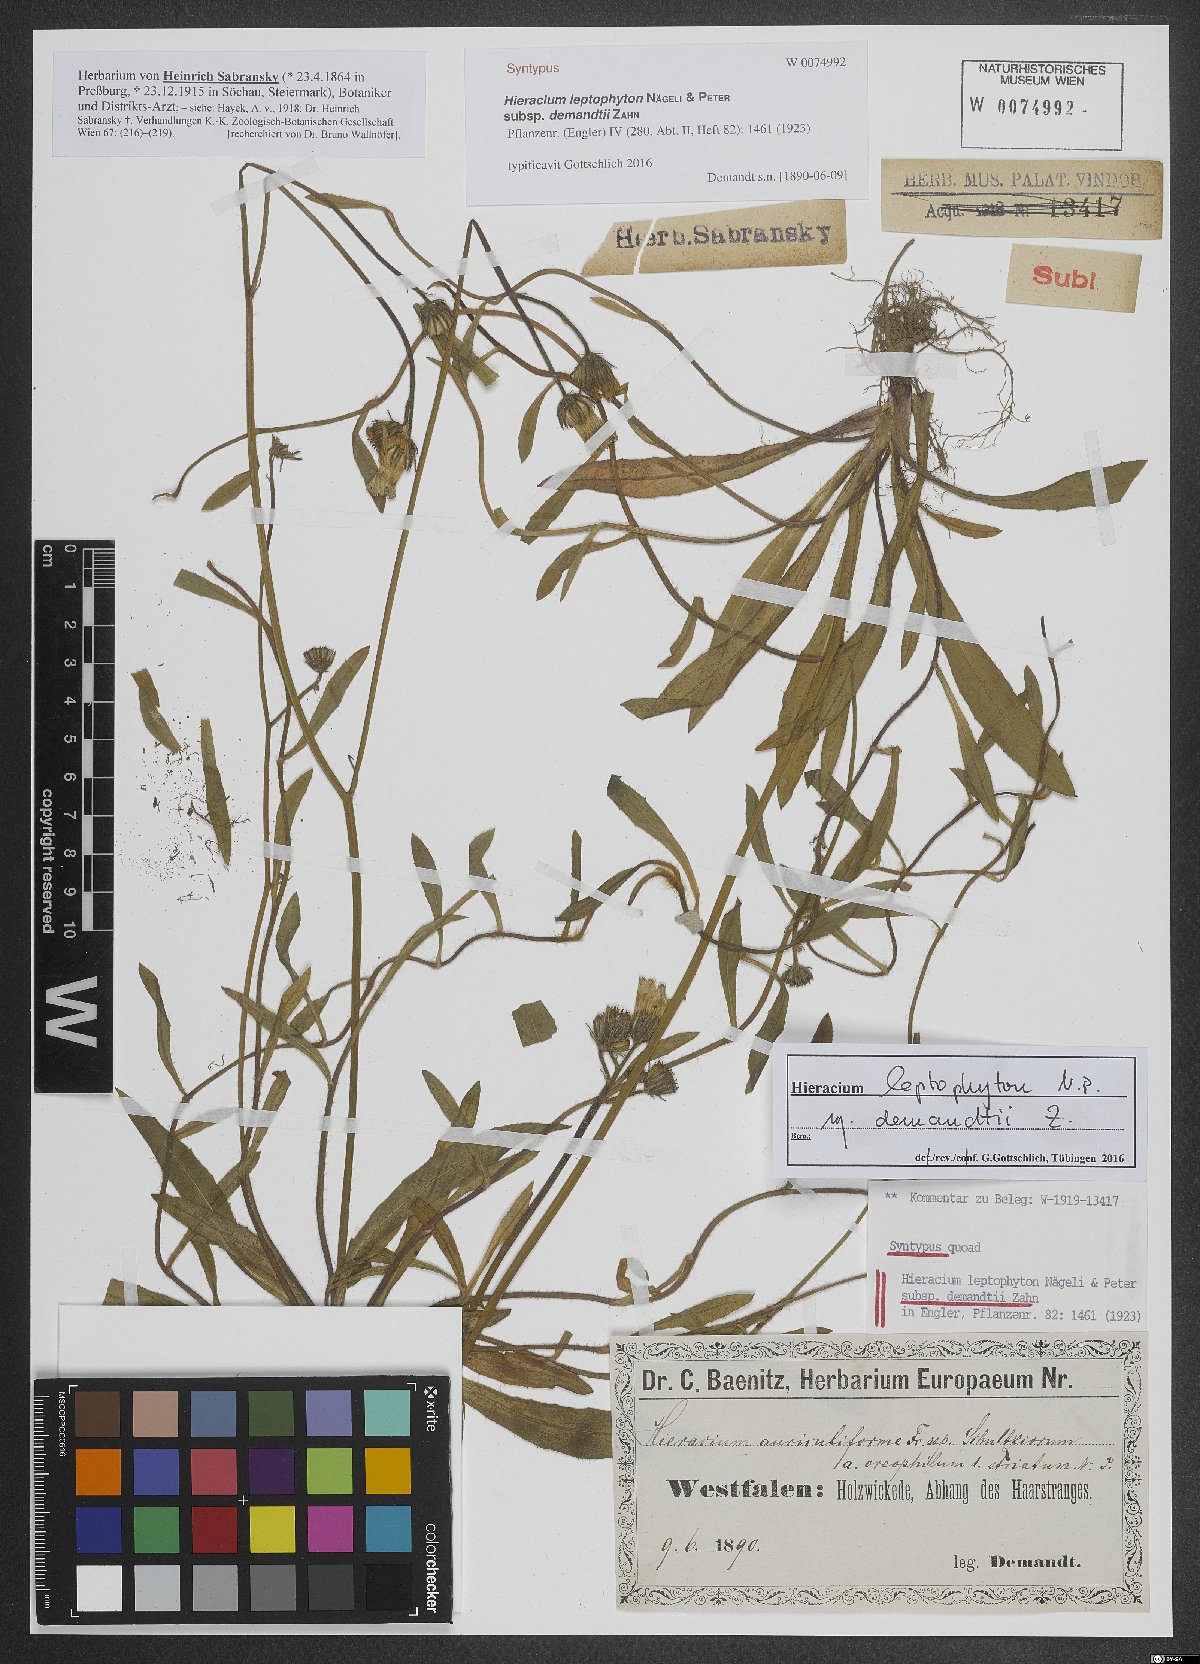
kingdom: Plantae
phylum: Tracheophyta
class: Magnoliopsida
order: Asterales
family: Asteraceae
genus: Pilosella
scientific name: Pilosella leptophyton
